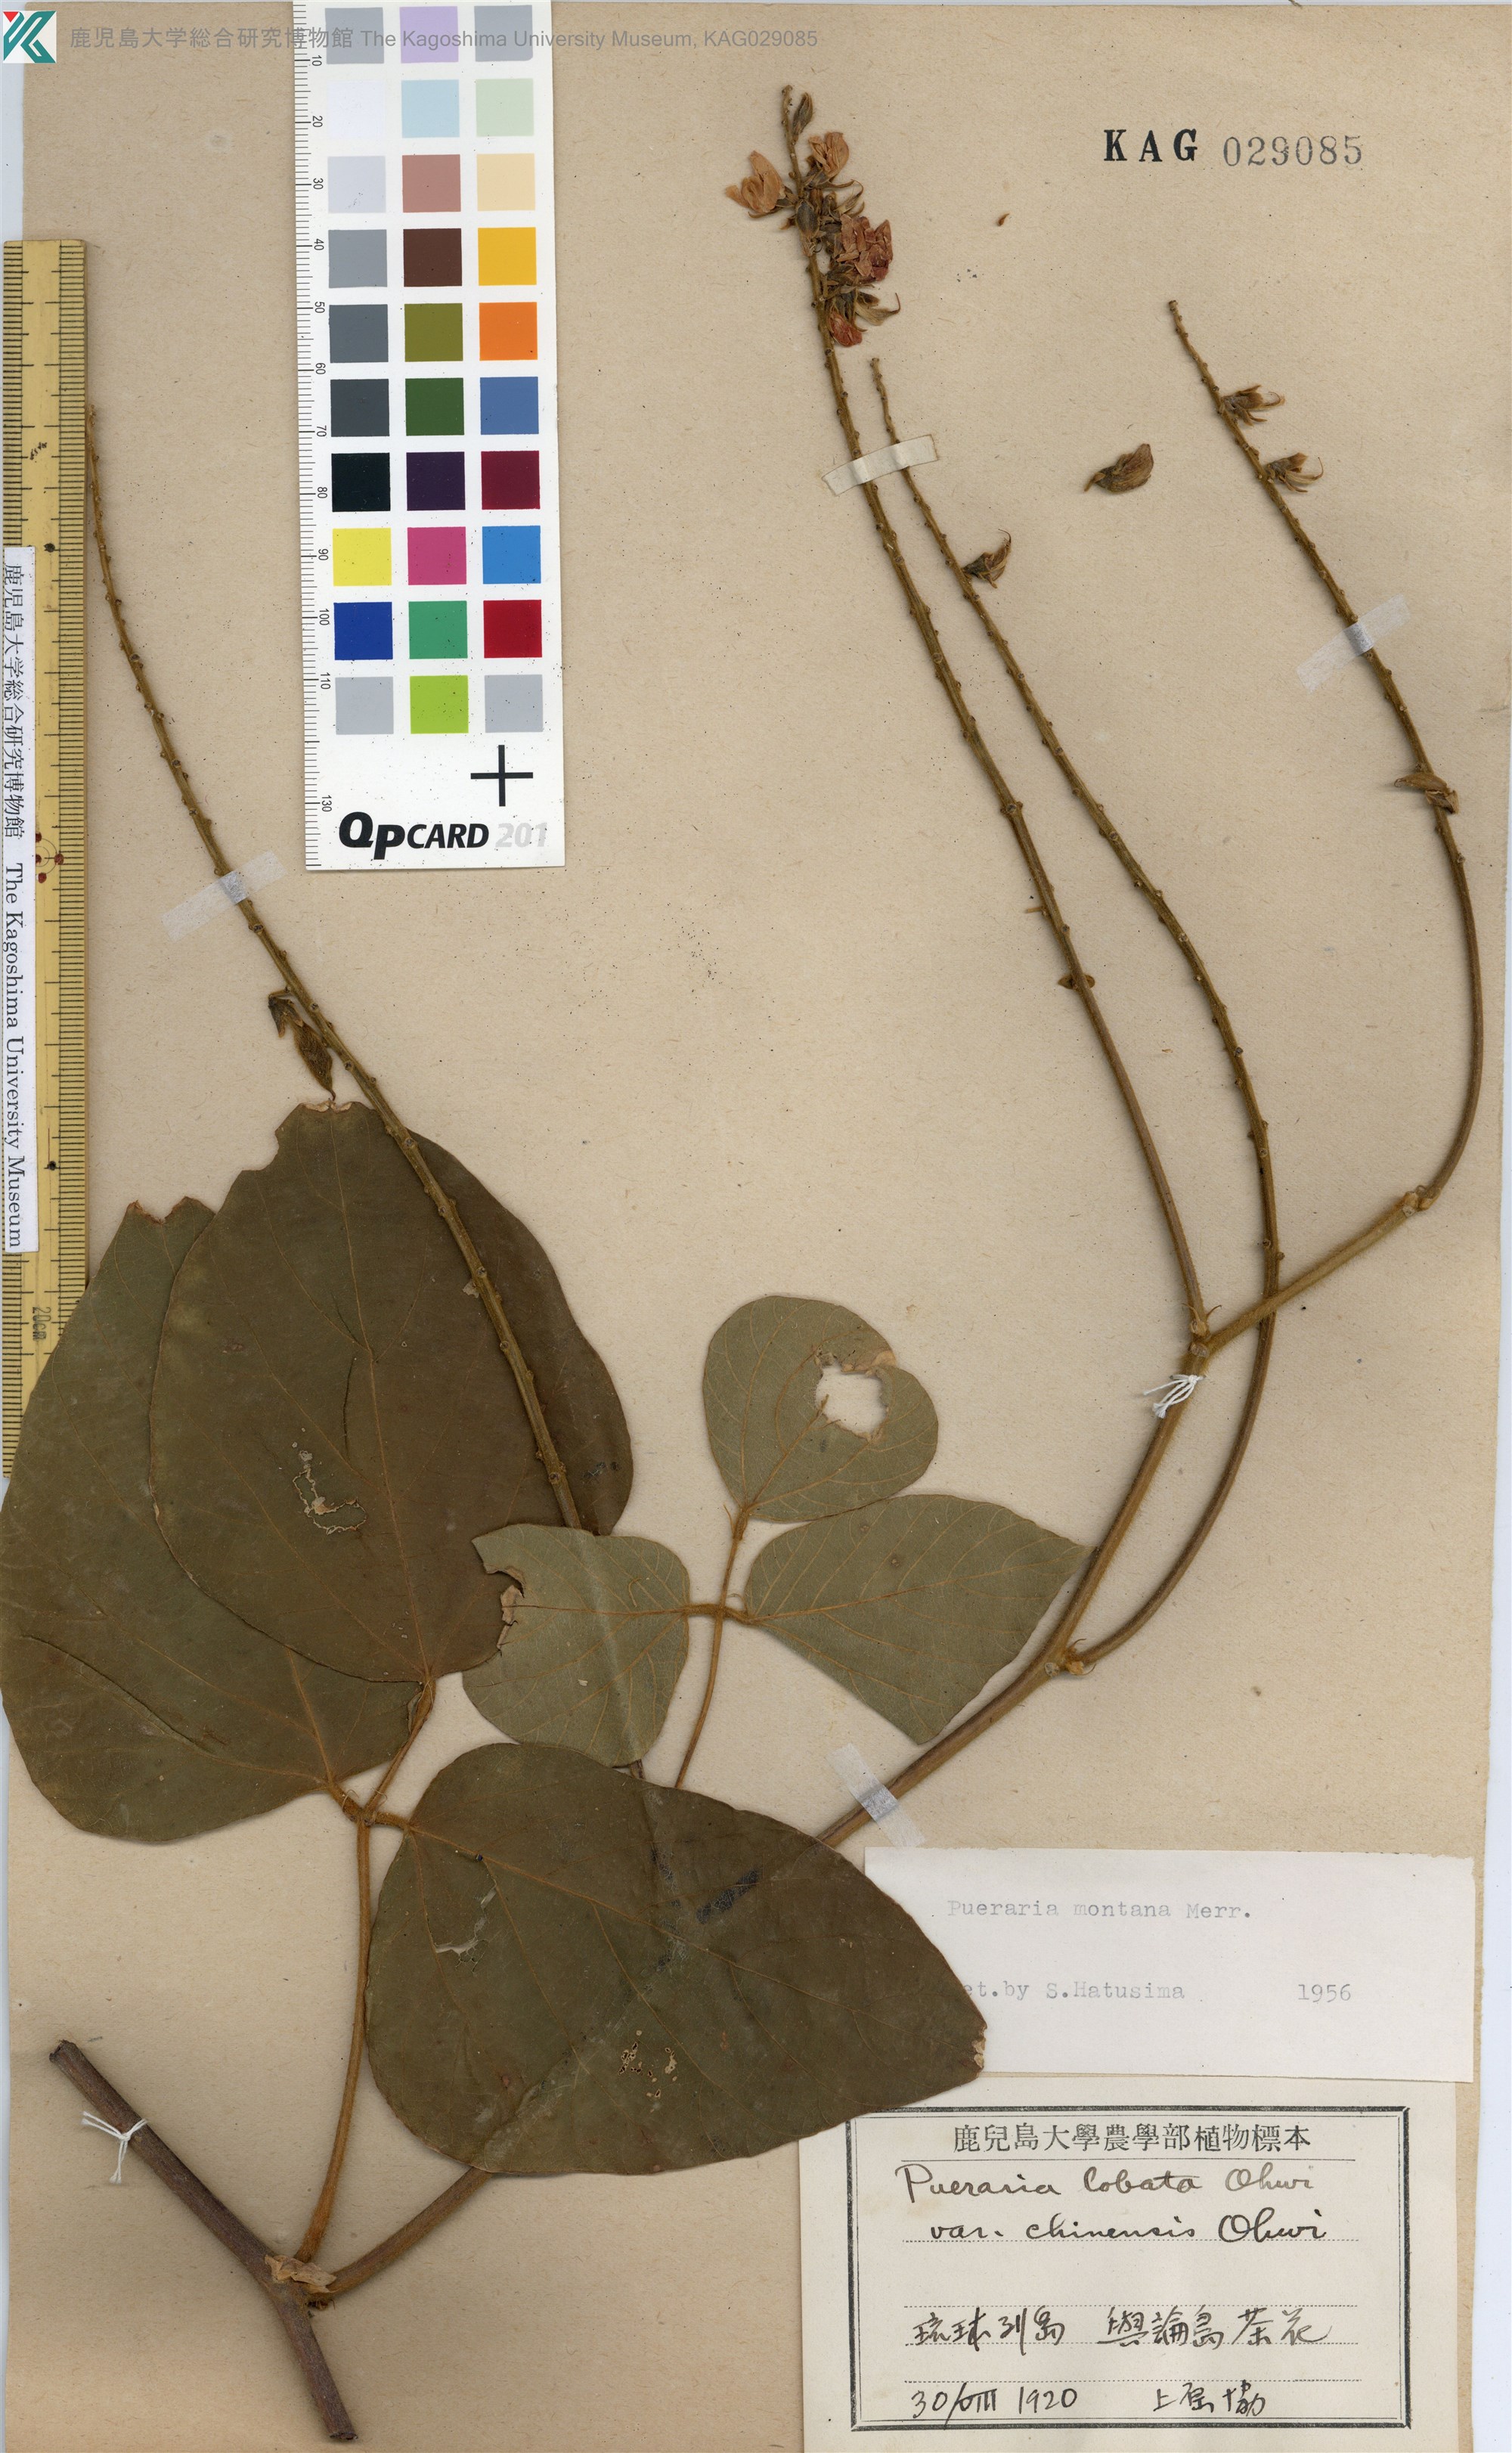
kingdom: Plantae
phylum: Tracheophyta
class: Magnoliopsida
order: Fabales
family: Fabaceae
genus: Pueraria
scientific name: Pueraria montana
